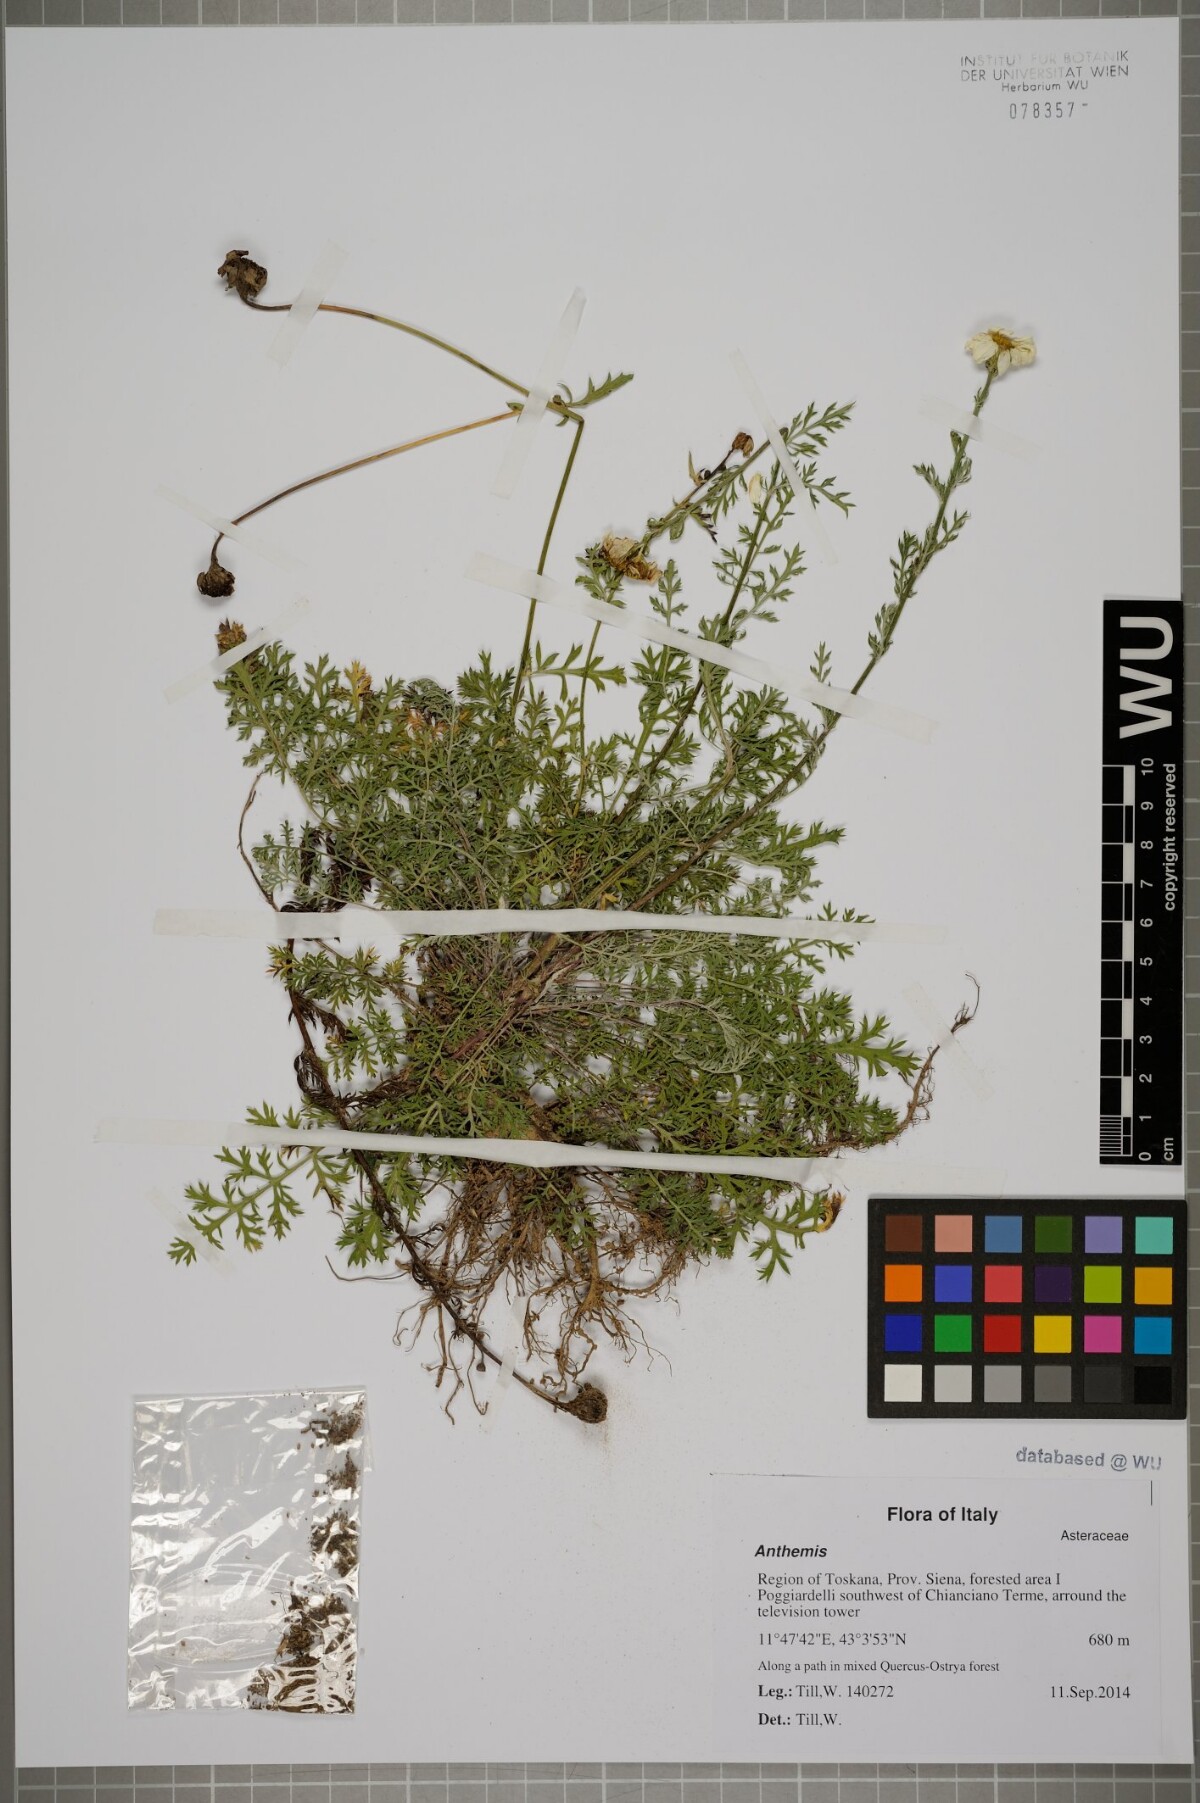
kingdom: Plantae
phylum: Tracheophyta
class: Magnoliopsida
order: Asterales
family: Asteraceae
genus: Anthemis
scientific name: Anthemis
